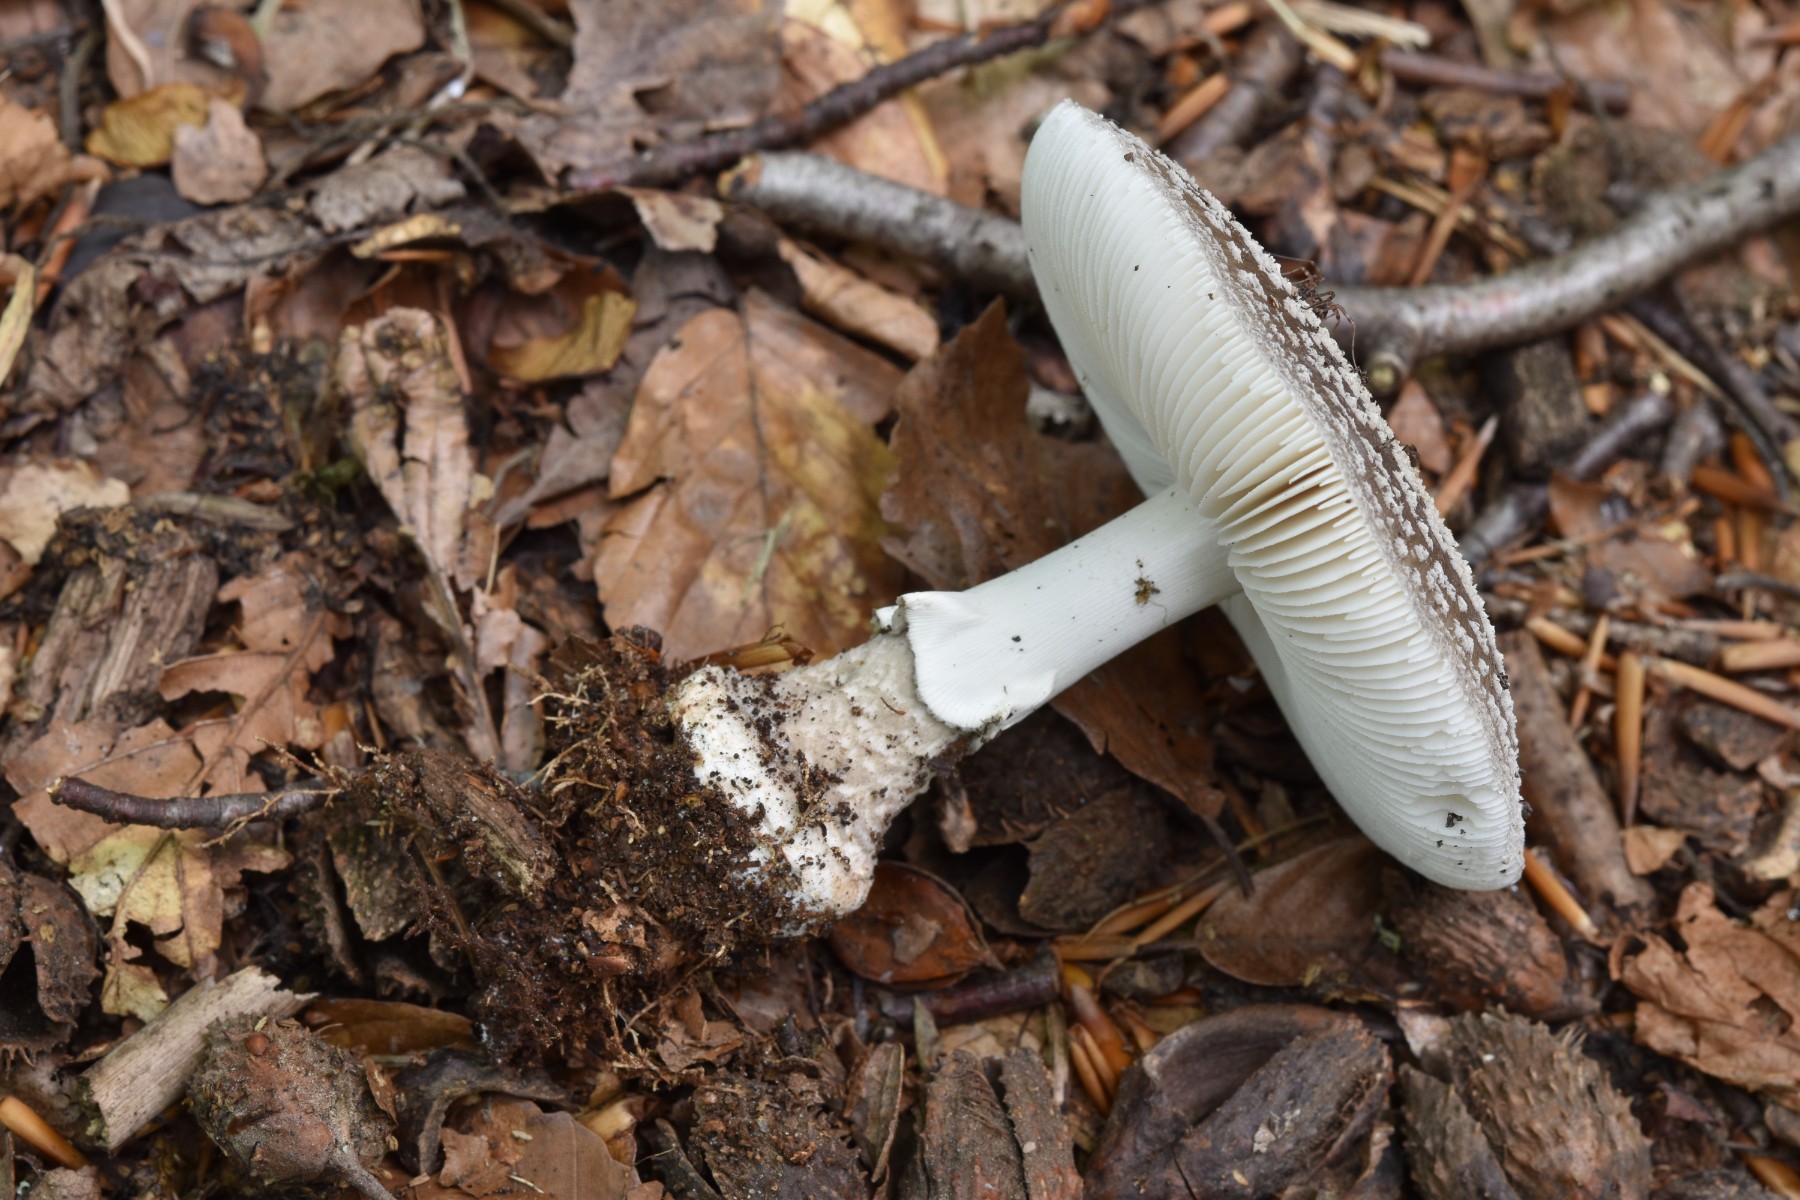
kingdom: Fungi
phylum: Basidiomycota
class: Agaricomycetes
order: Agaricales
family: Amanitaceae
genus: Amanita
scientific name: Amanita
